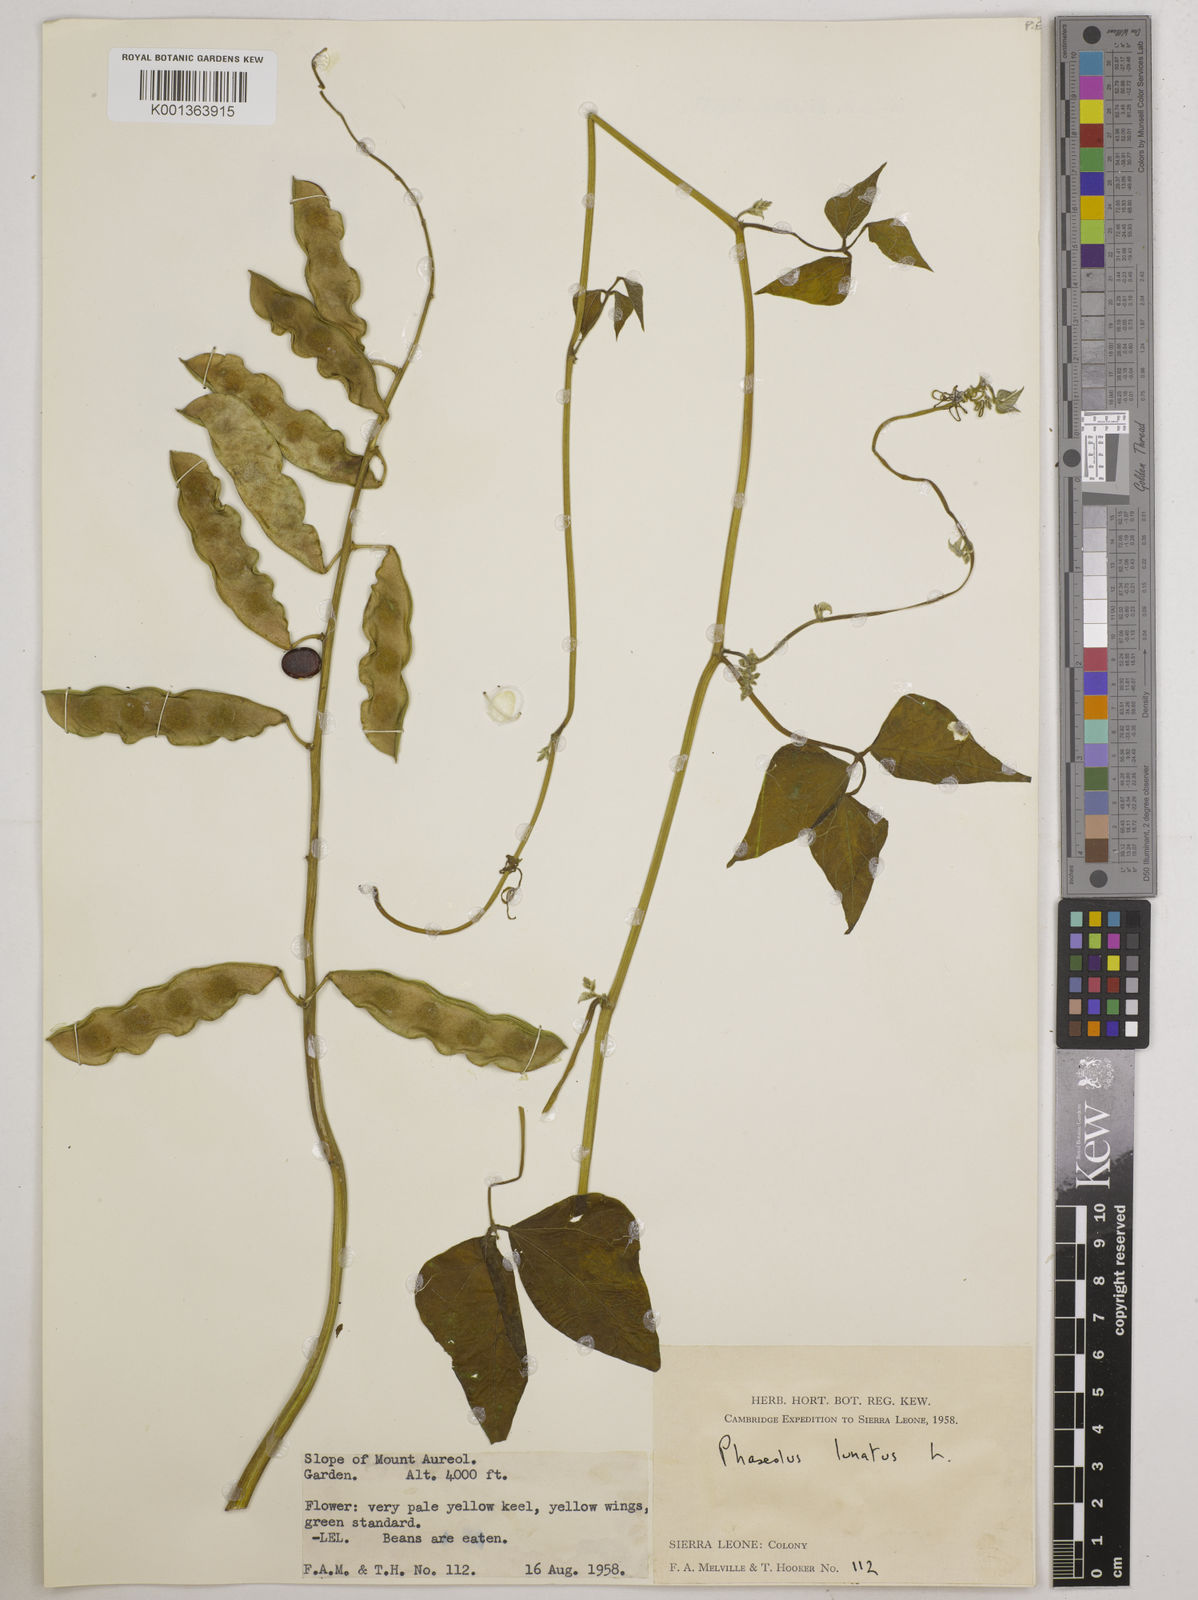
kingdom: Plantae
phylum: Tracheophyta
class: Magnoliopsida
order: Fabales
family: Fabaceae
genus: Phaseolus
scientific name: Phaseolus lunatus
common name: Sieva bean
